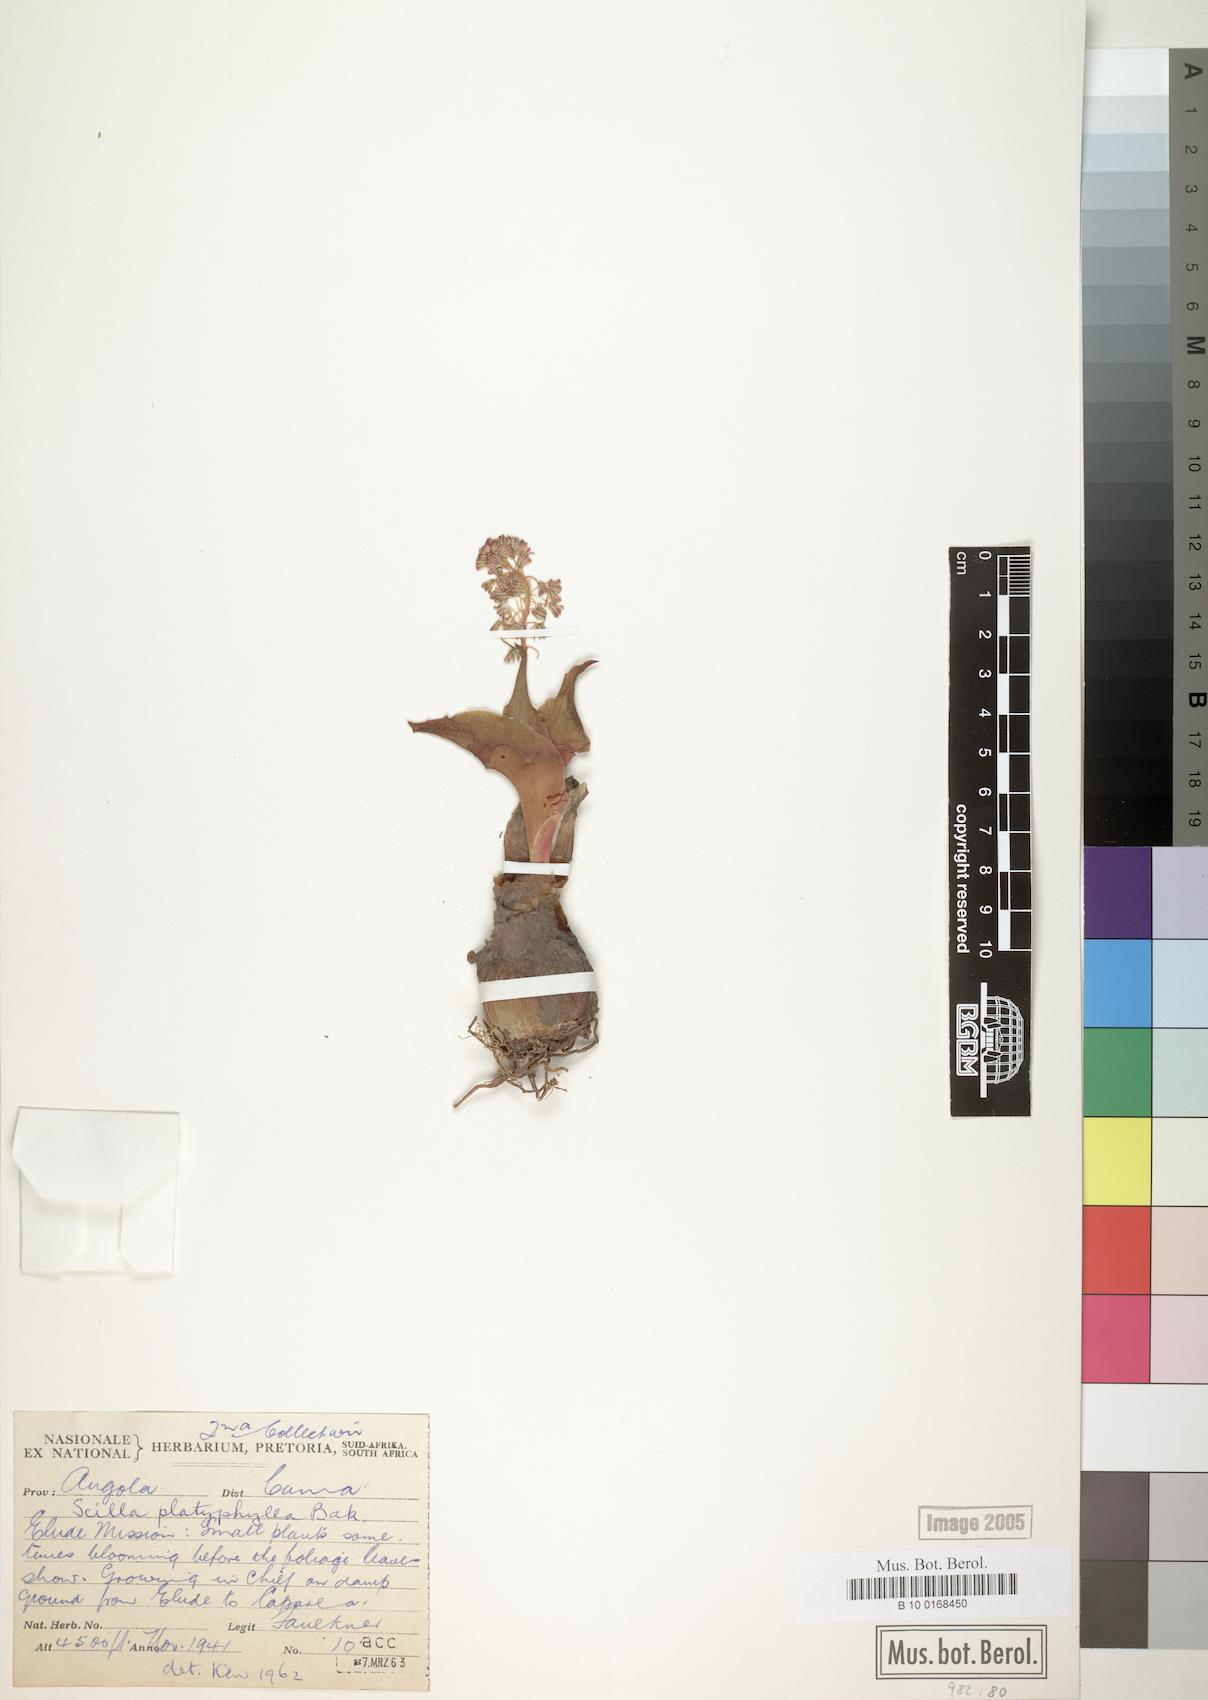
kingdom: Plantae
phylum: Tracheophyta
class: Liliopsida
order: Asparagales
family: Asparagaceae
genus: Scilla
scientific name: Scilla platyphylla
